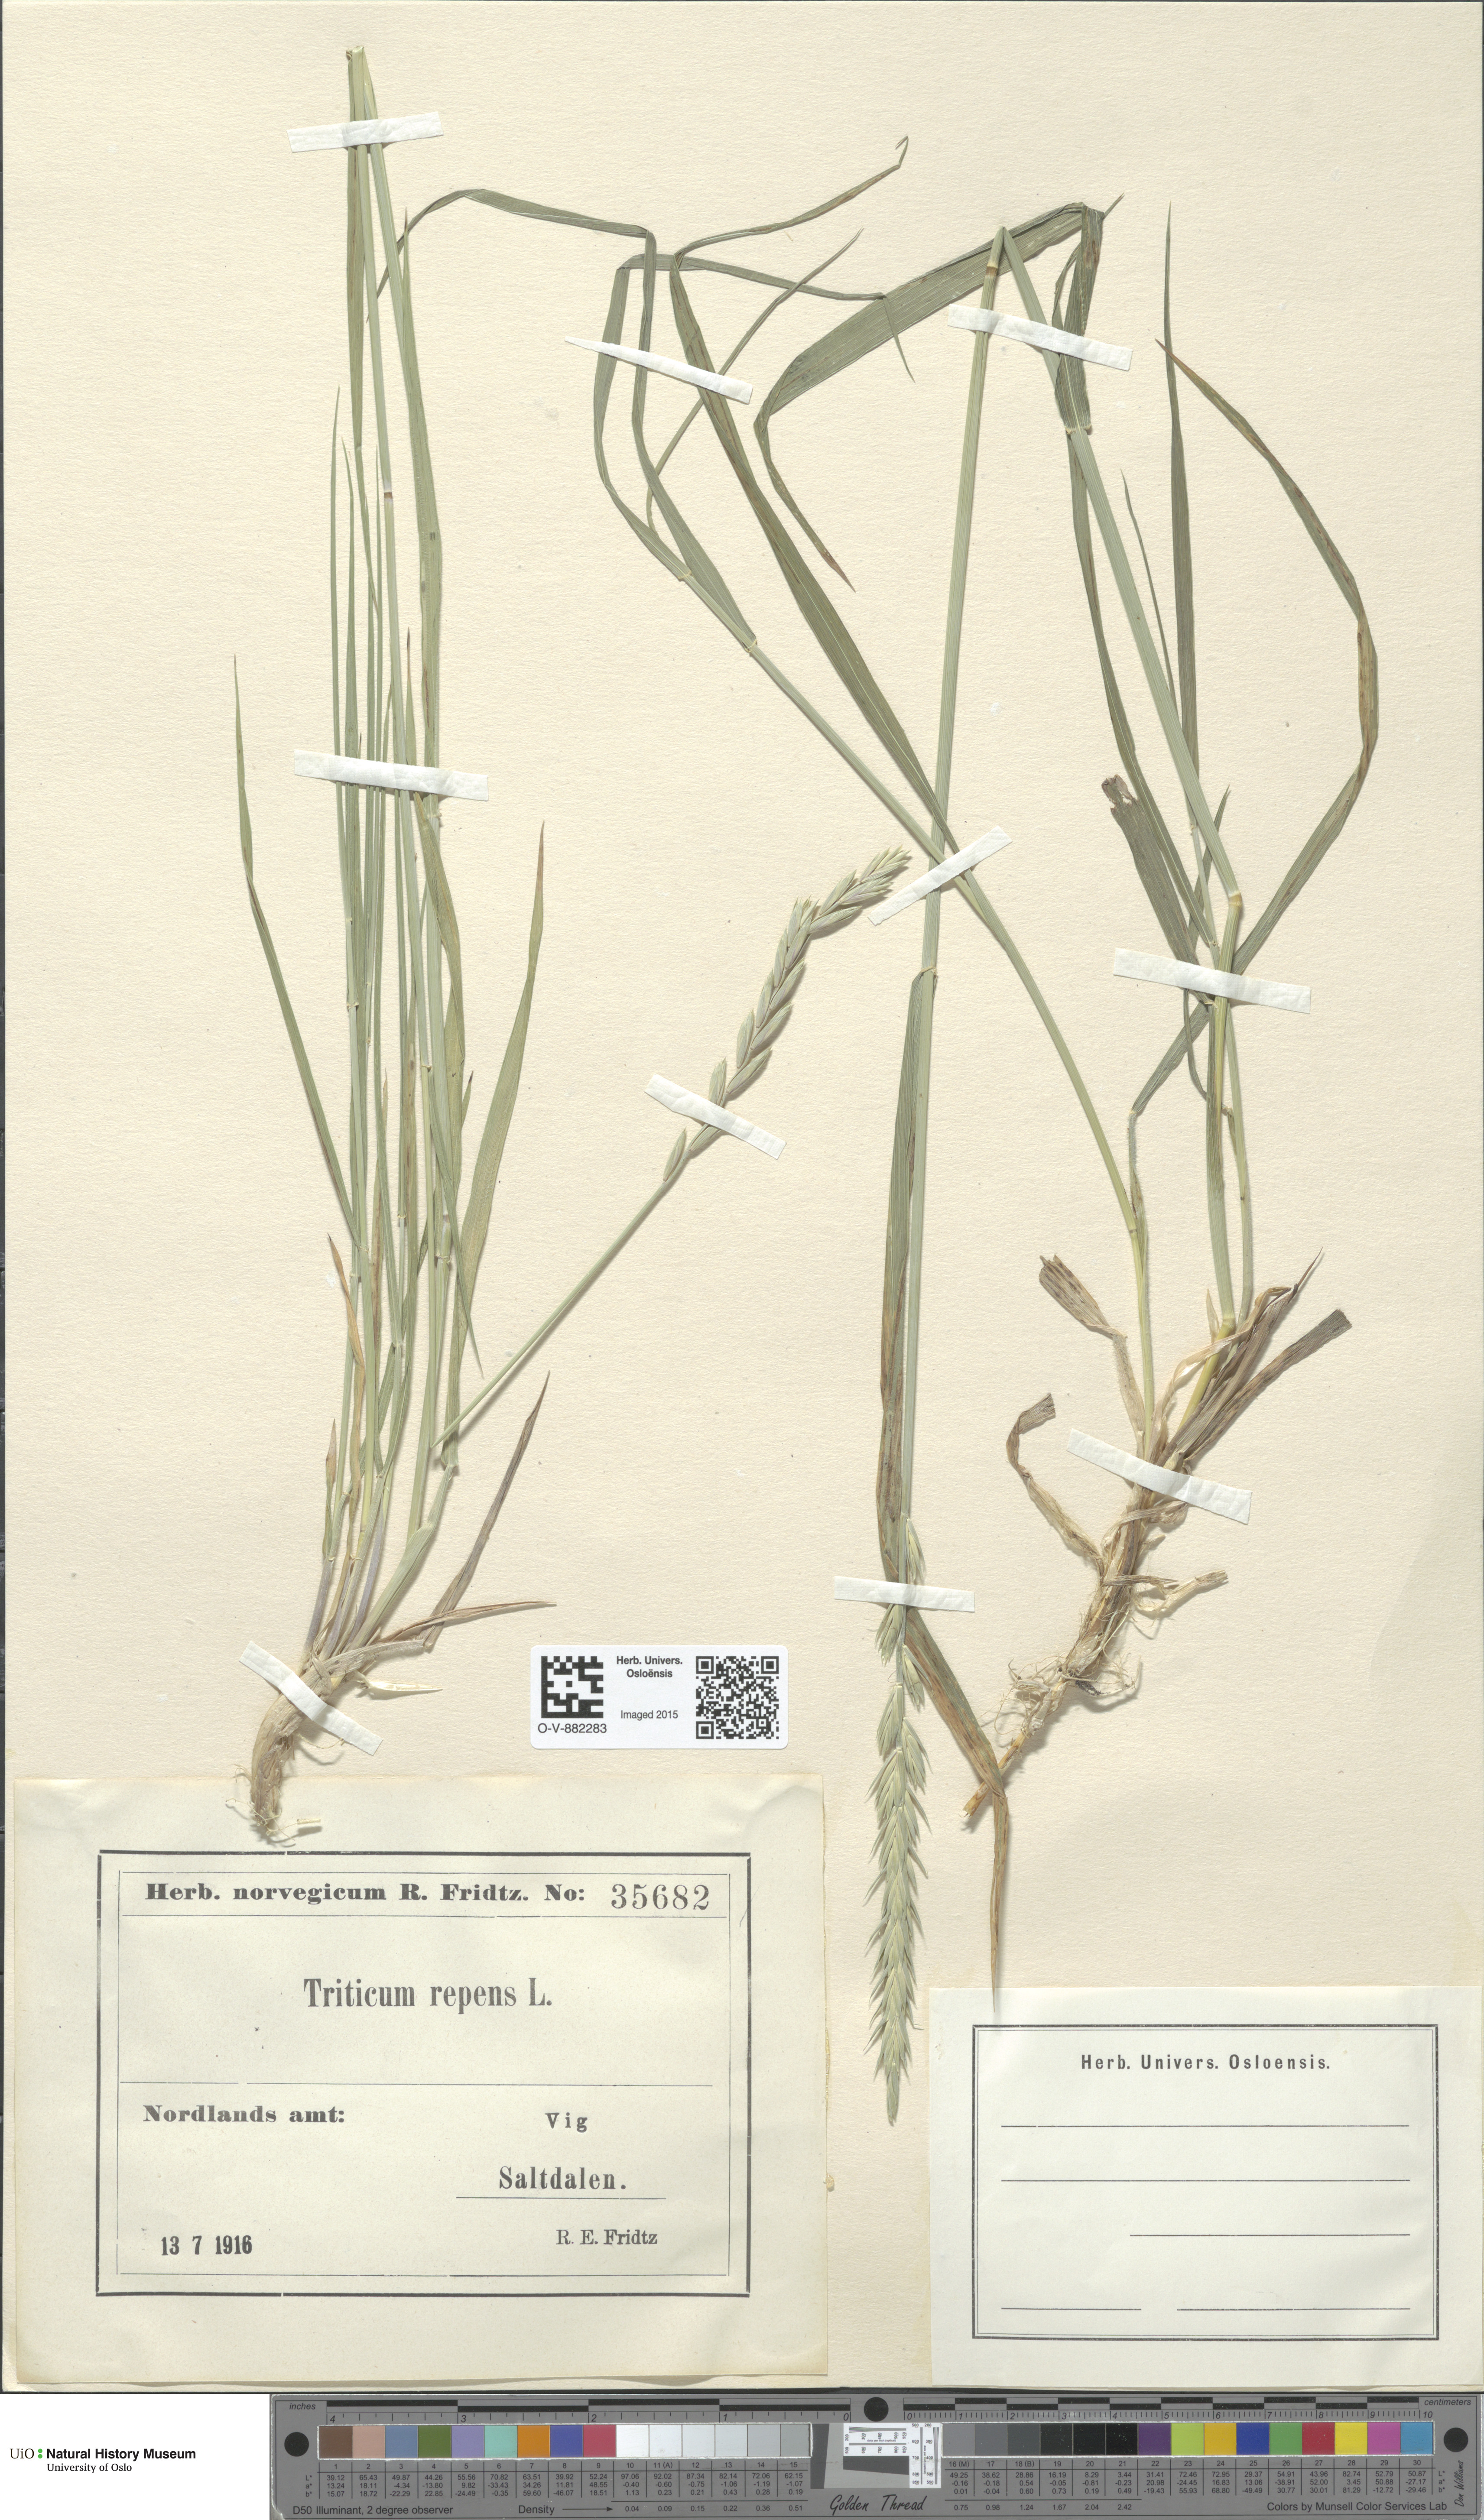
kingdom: Plantae
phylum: Tracheophyta
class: Liliopsida
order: Poales
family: Poaceae
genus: Elymus
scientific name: Elymus repens
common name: Quackgrass
